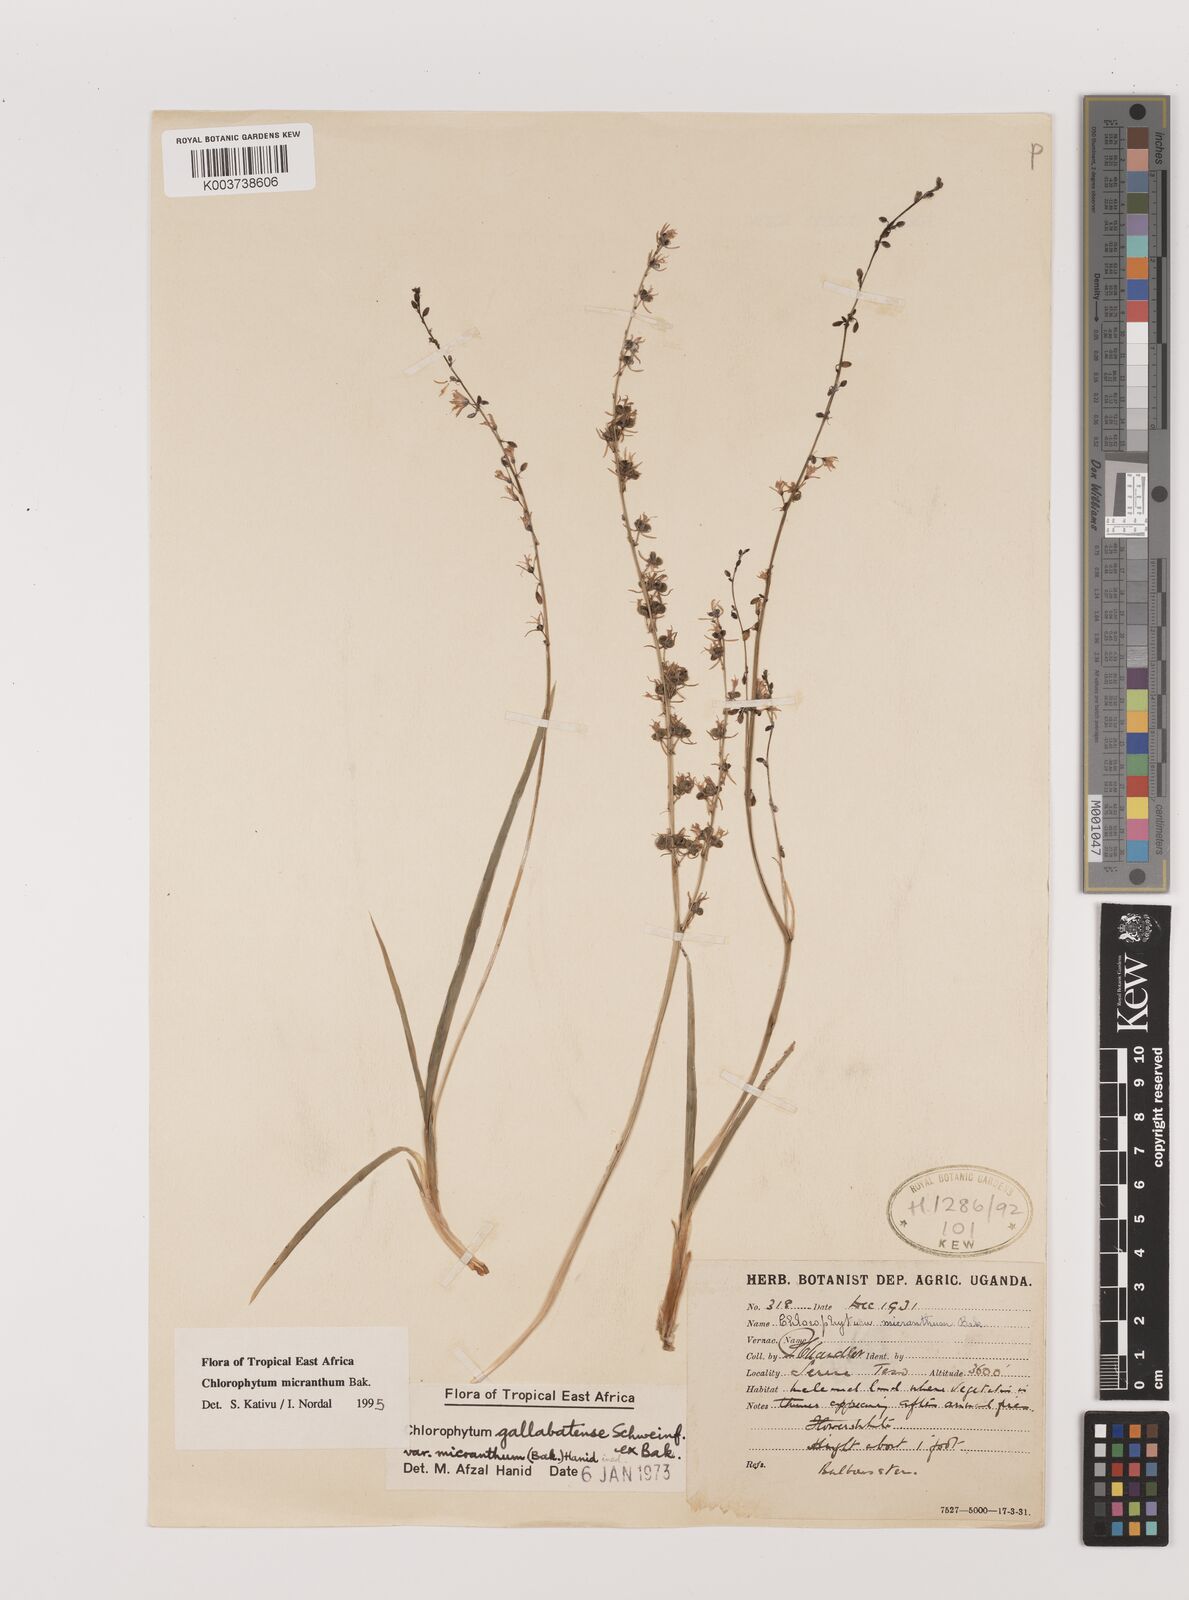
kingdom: Plantae
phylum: Tracheophyta
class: Liliopsida
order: Asparagales
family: Asparagaceae
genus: Chlorophytum
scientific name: Chlorophytum gallabatense
